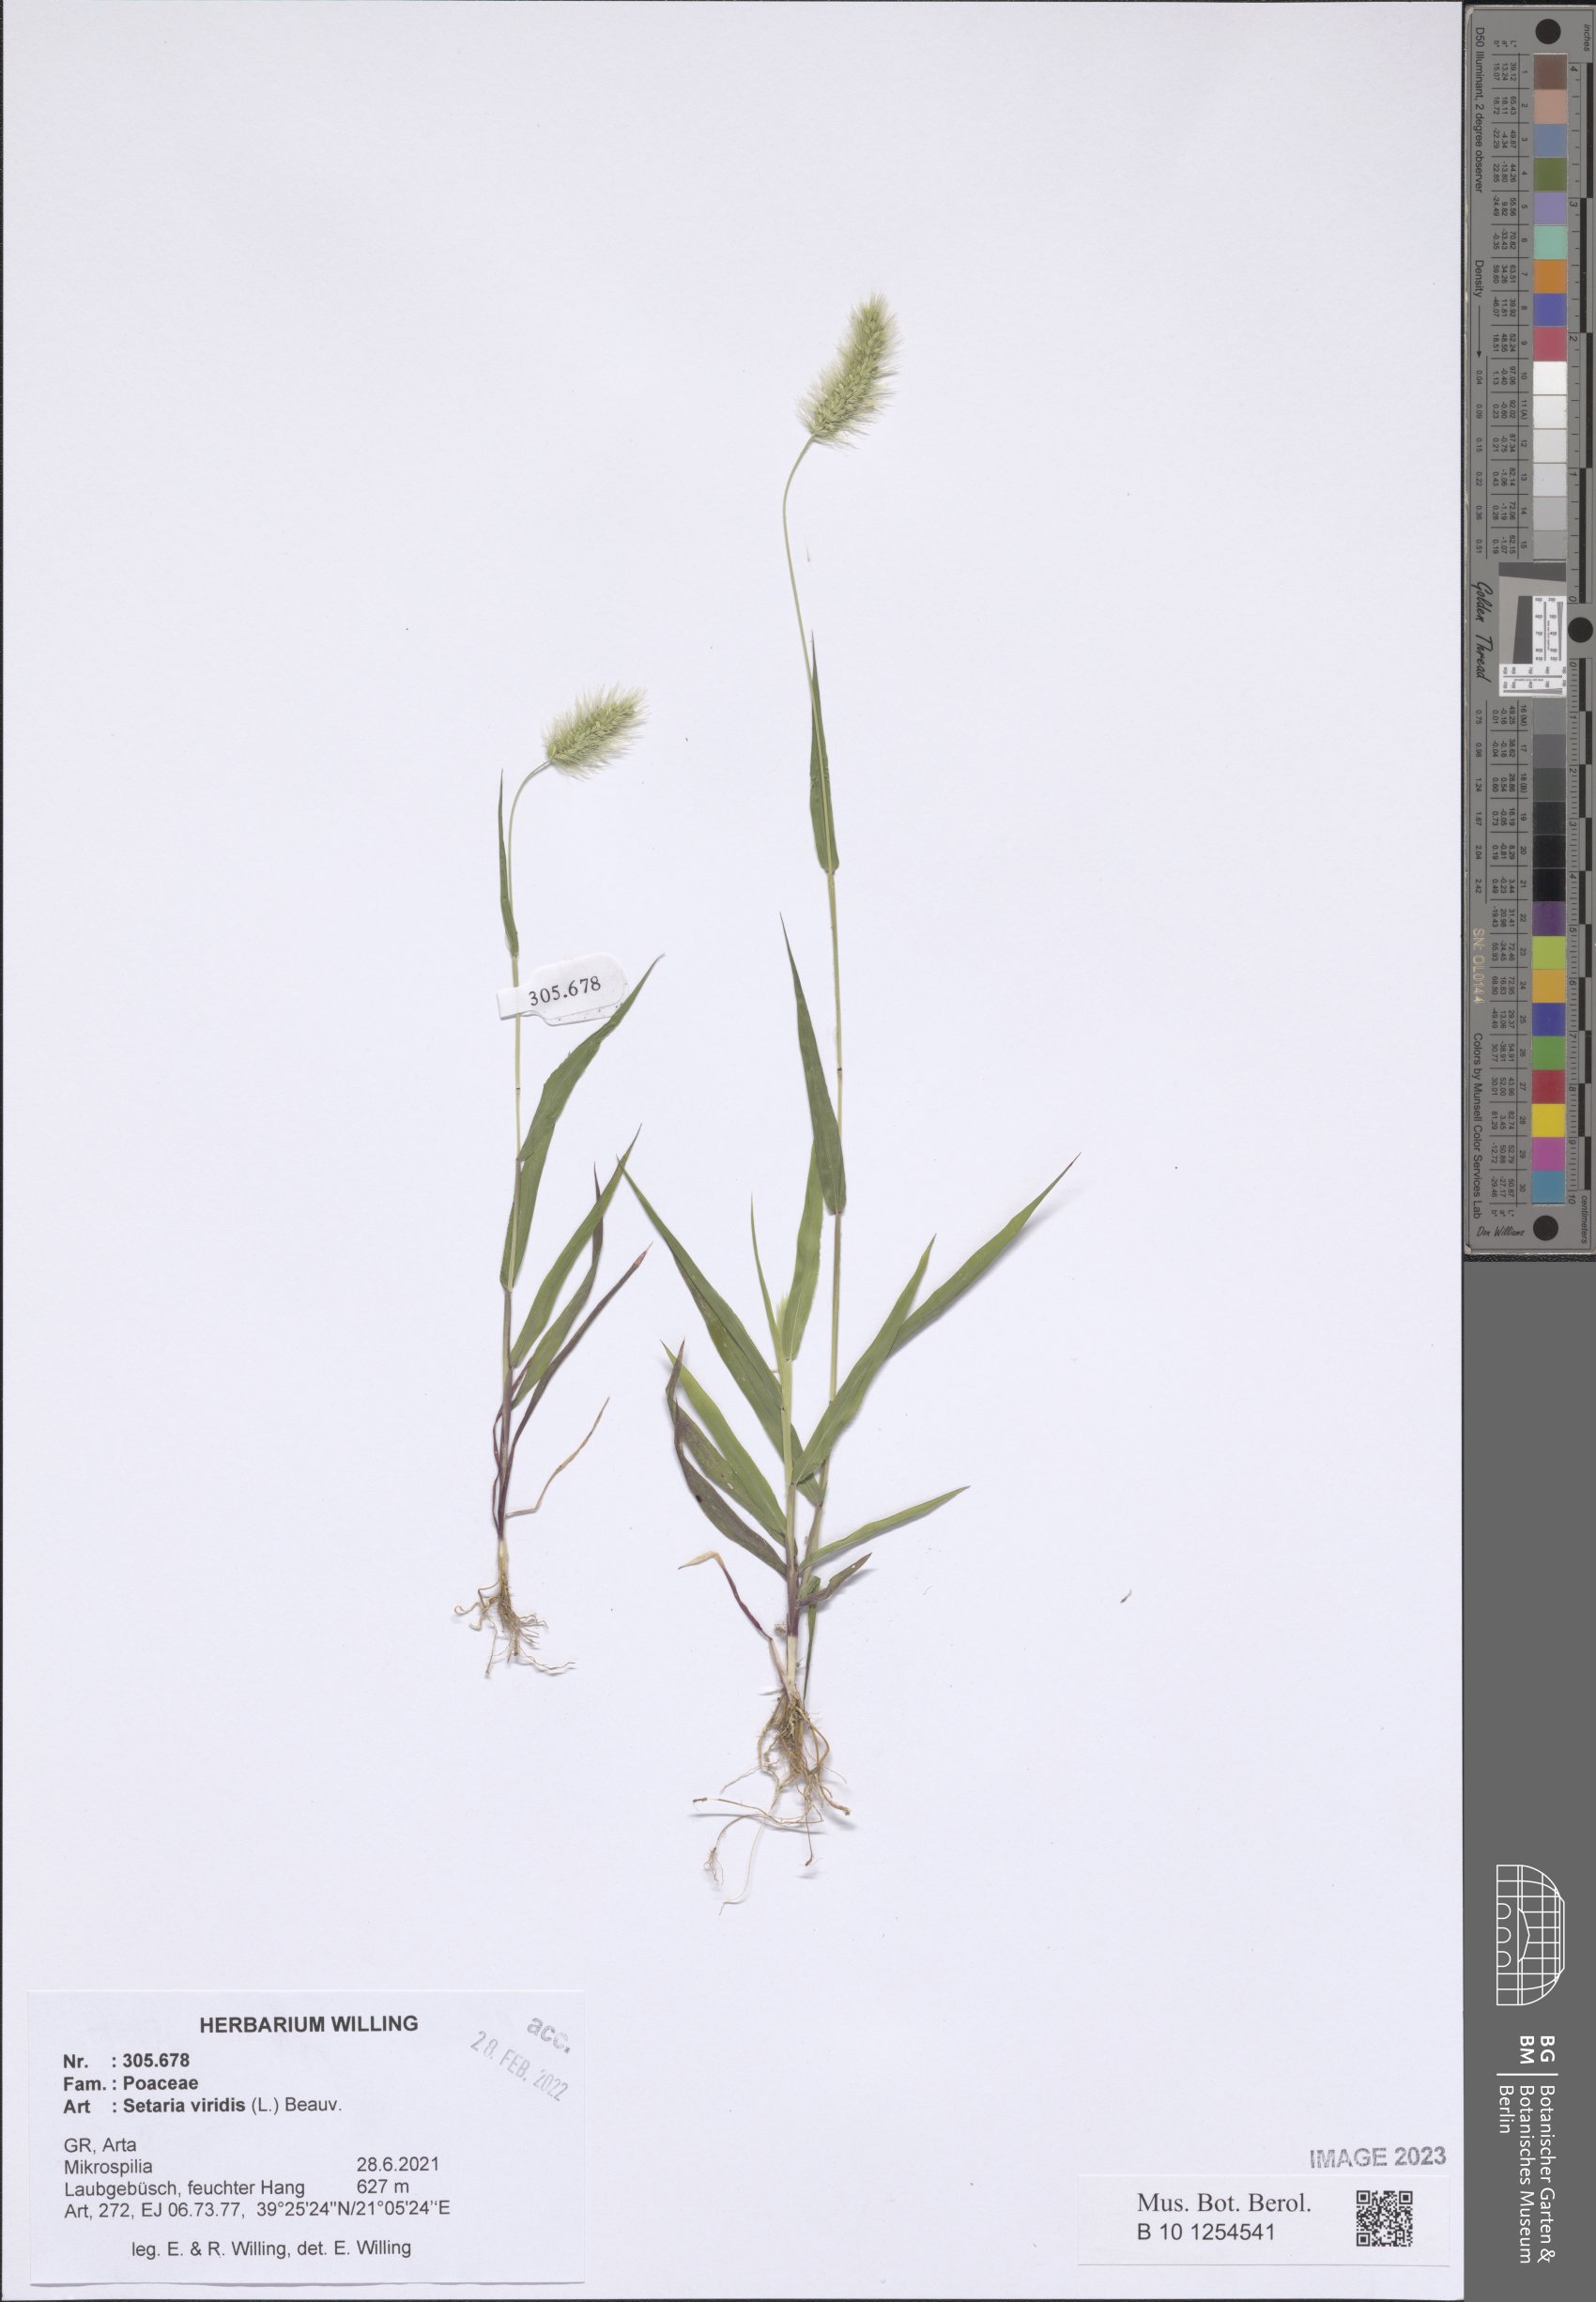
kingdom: Plantae
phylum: Tracheophyta
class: Liliopsida
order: Poales
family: Poaceae
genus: Setaria
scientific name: Setaria viridis
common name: Green bristlegrass
